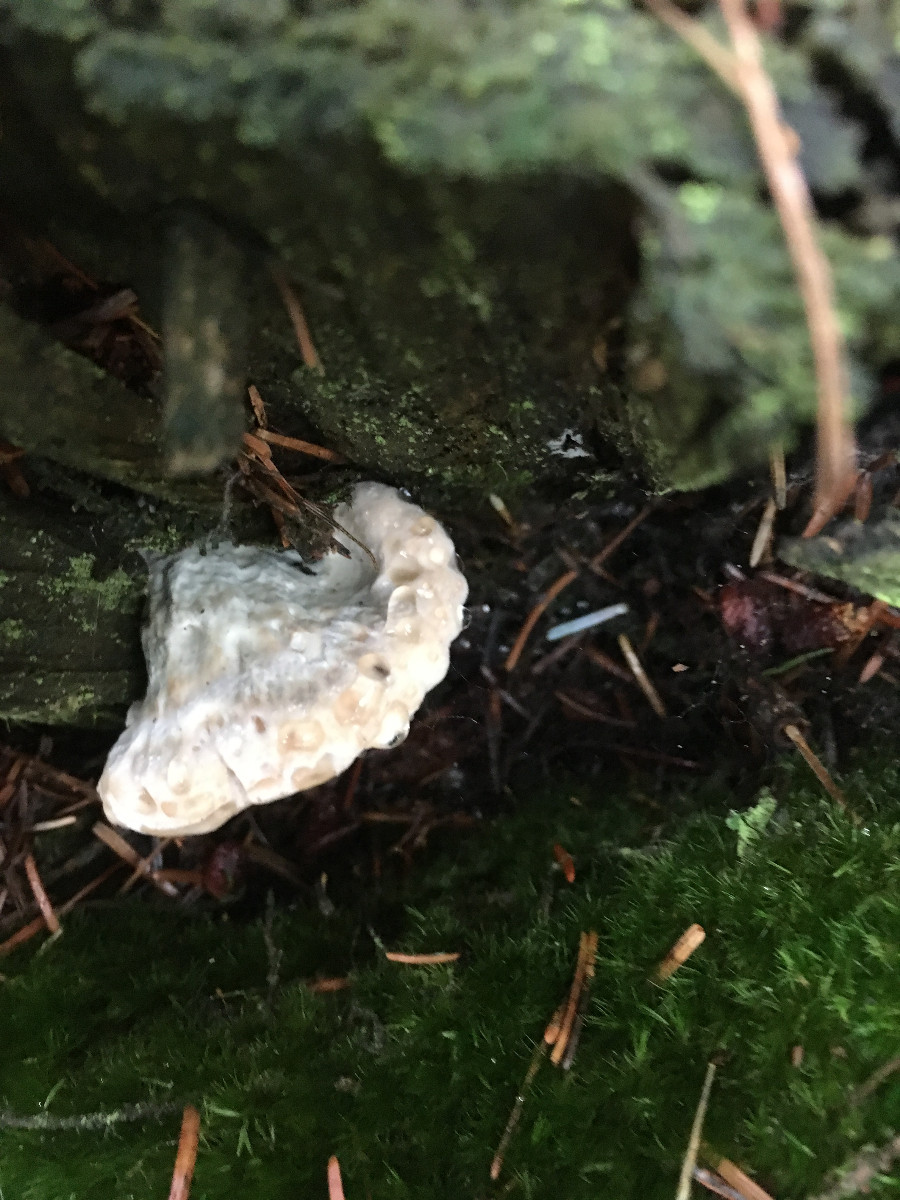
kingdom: Fungi
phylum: Basidiomycota
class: Agaricomycetes
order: Polyporales
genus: Calcipostia
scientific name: Calcipostia guttulata
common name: dråbe-kødporesvamp
